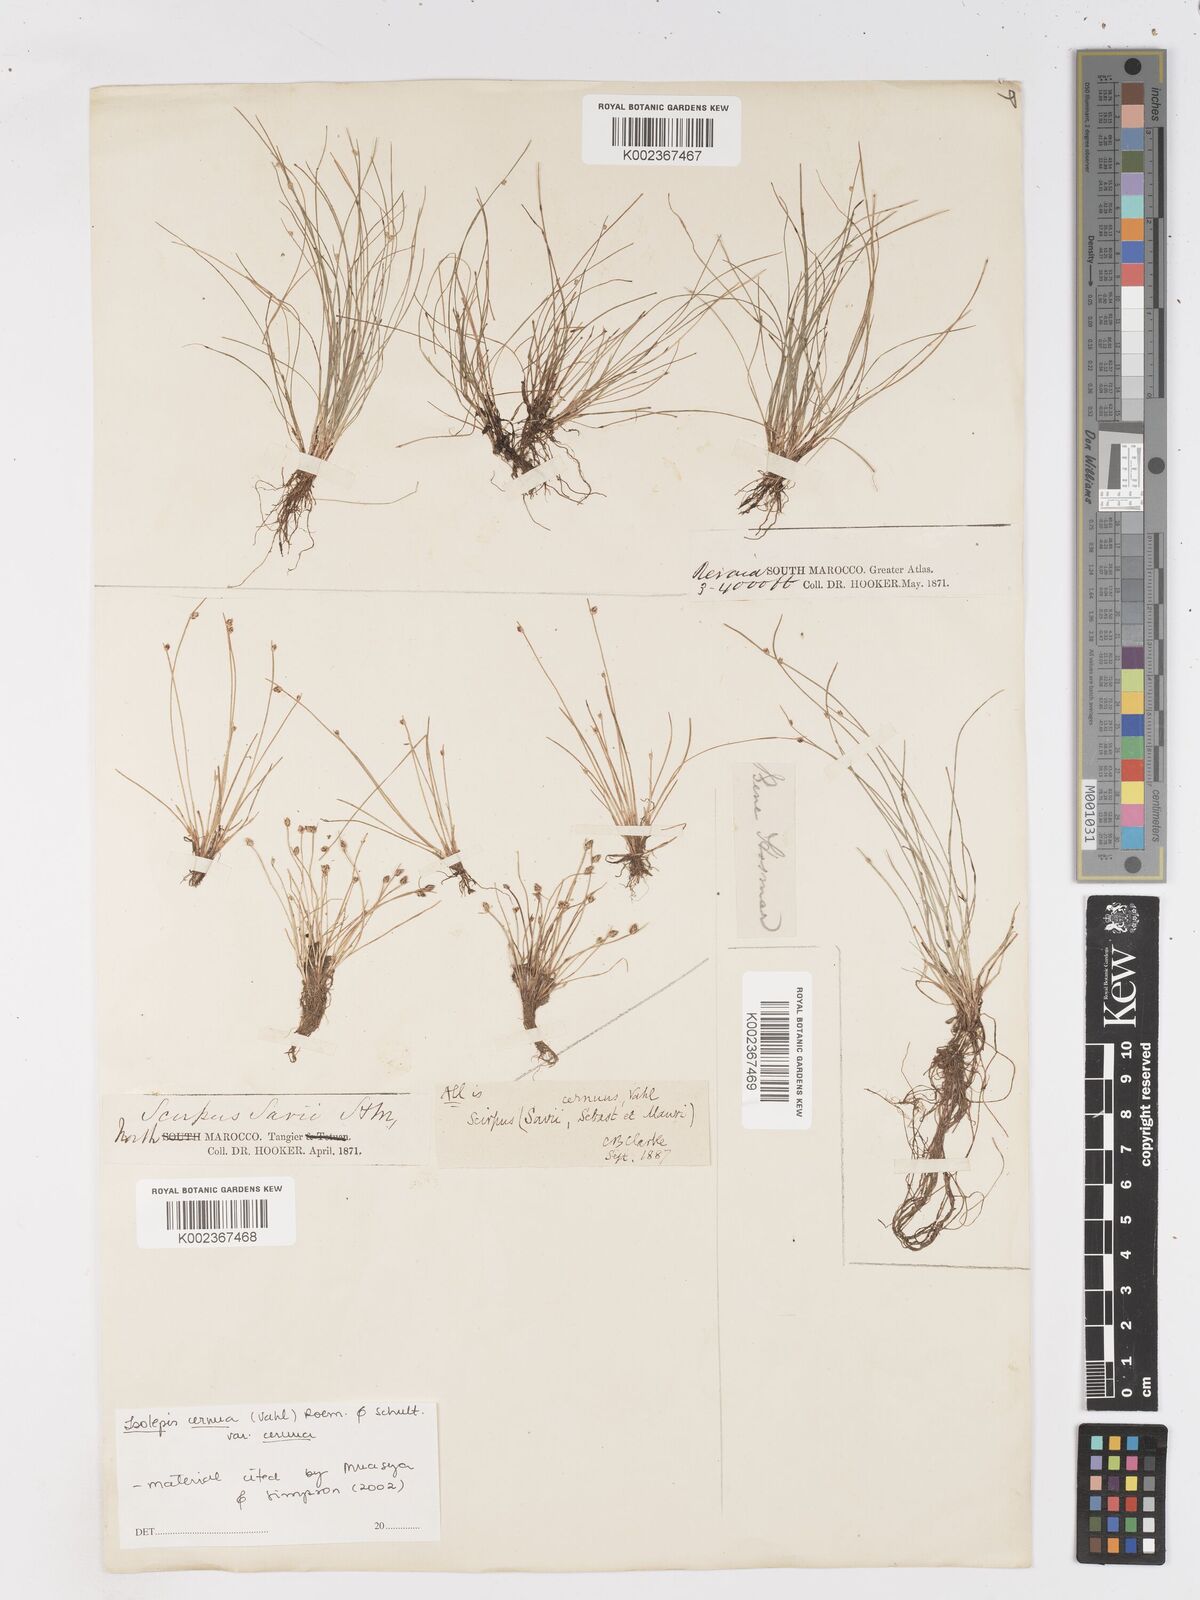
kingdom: Plantae
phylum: Tracheophyta
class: Liliopsida
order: Poales
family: Cyperaceae
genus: Isolepis
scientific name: Isolepis cernua
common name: Slender club-rush
